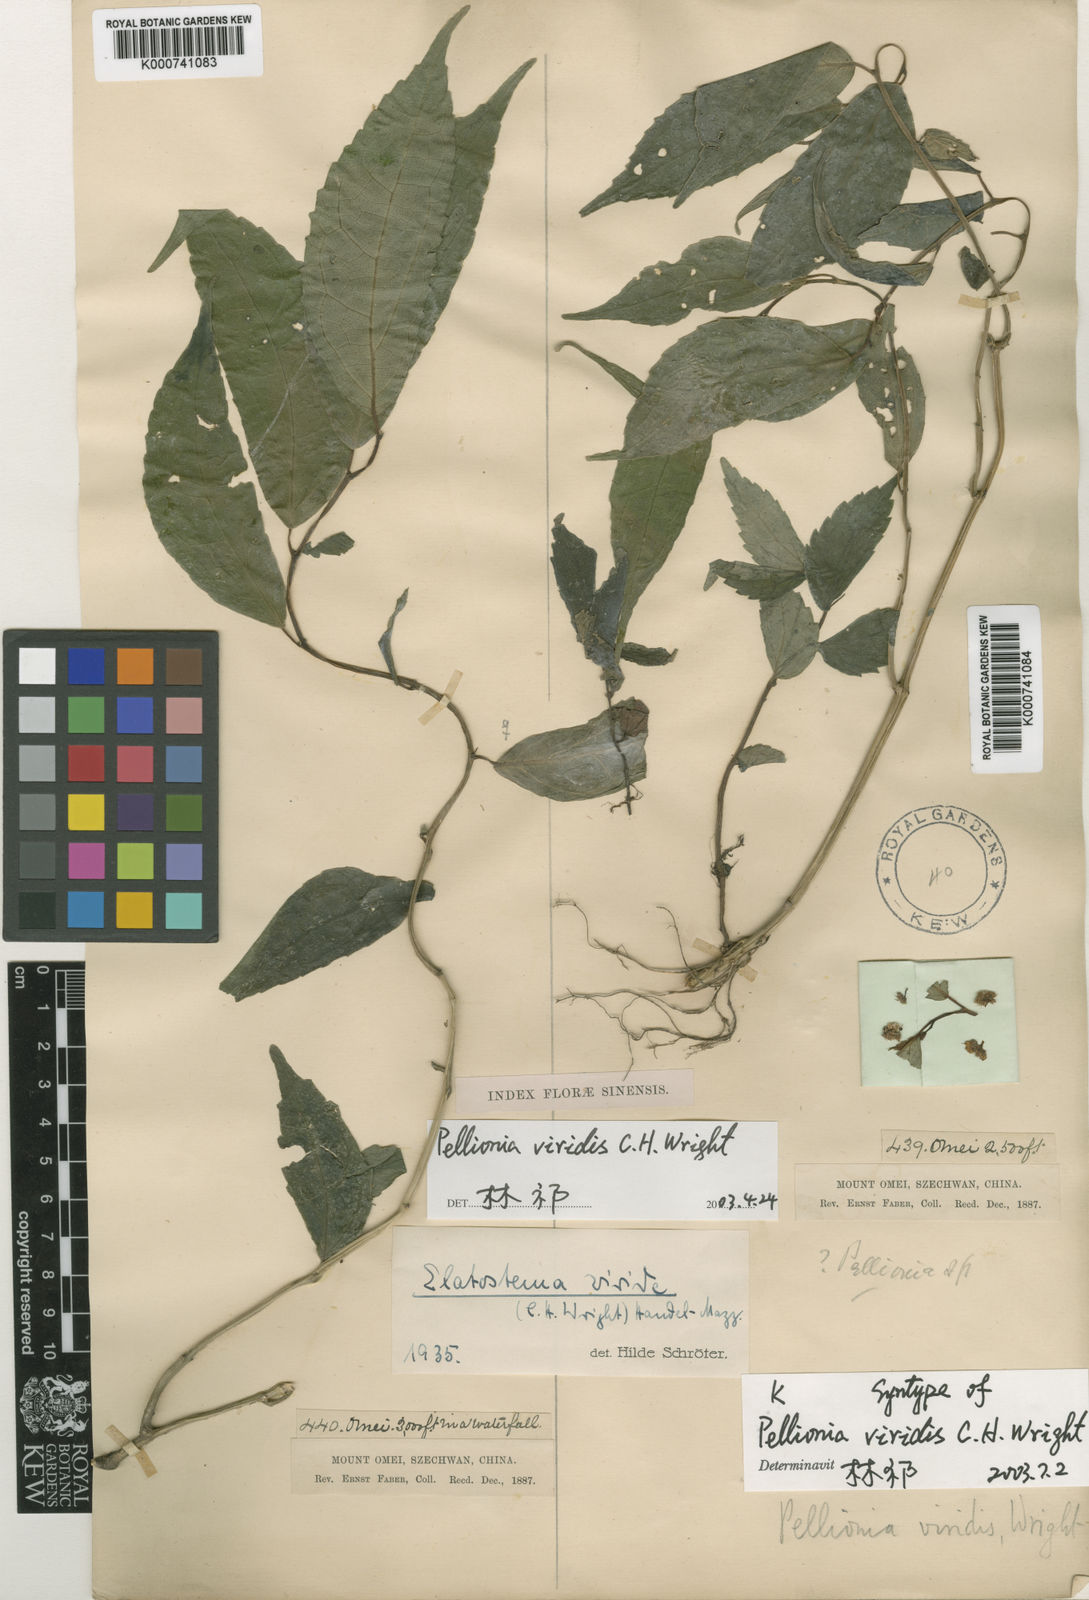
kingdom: Plantae
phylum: Tracheophyta
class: Magnoliopsida
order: Rosales
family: Urticaceae
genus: Elatostema
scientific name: Elatostema viride
